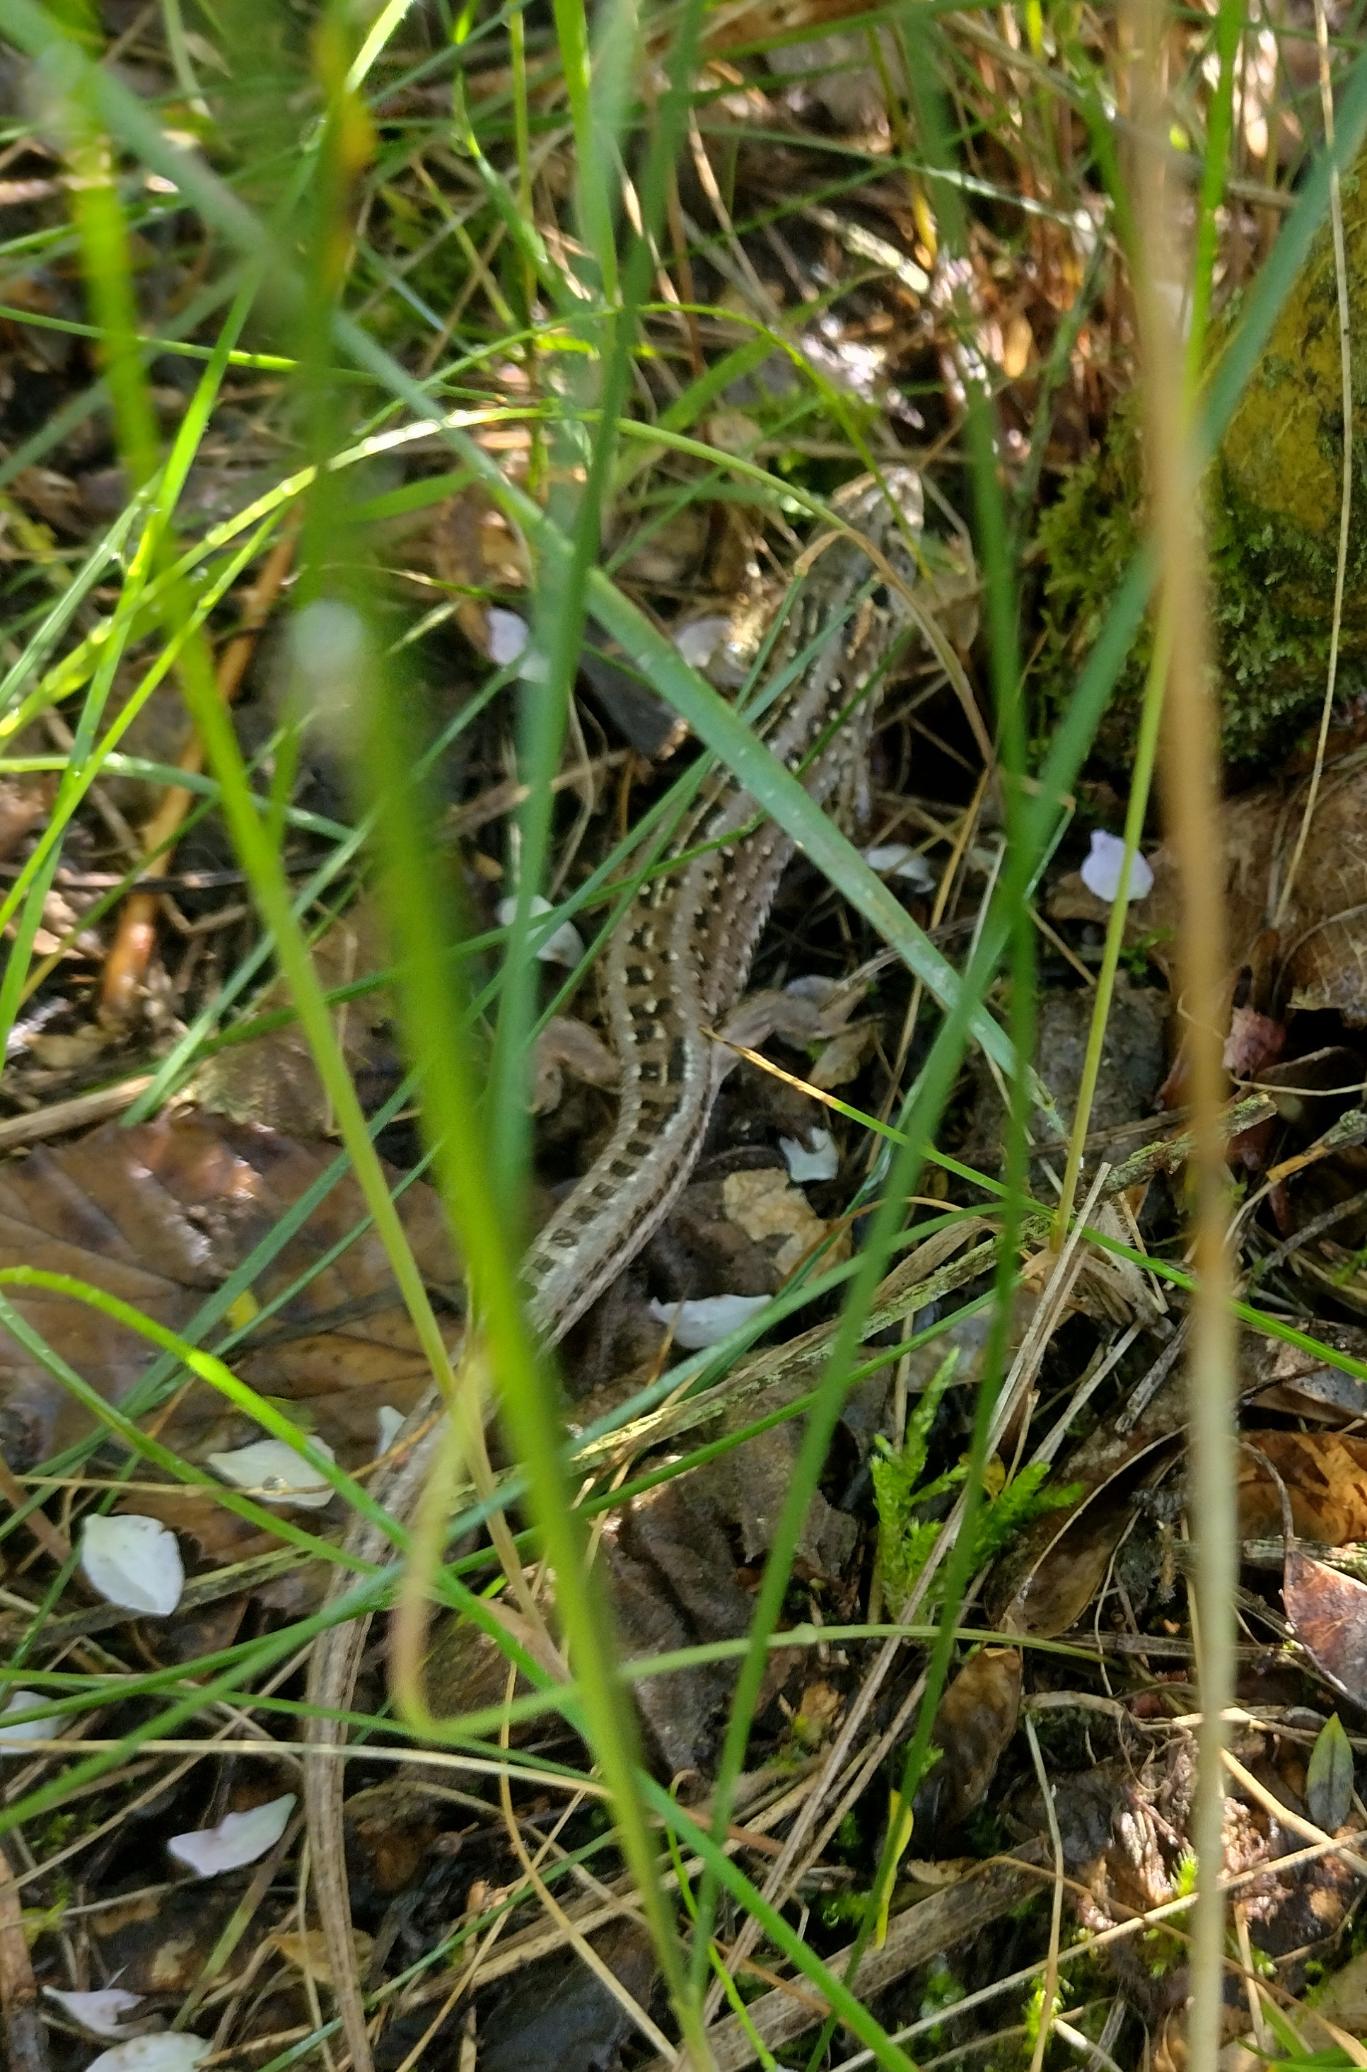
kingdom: Animalia
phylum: Chordata
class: Squamata
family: Lacertidae
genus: Lacerta
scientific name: Lacerta agilis
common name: Markfirben
